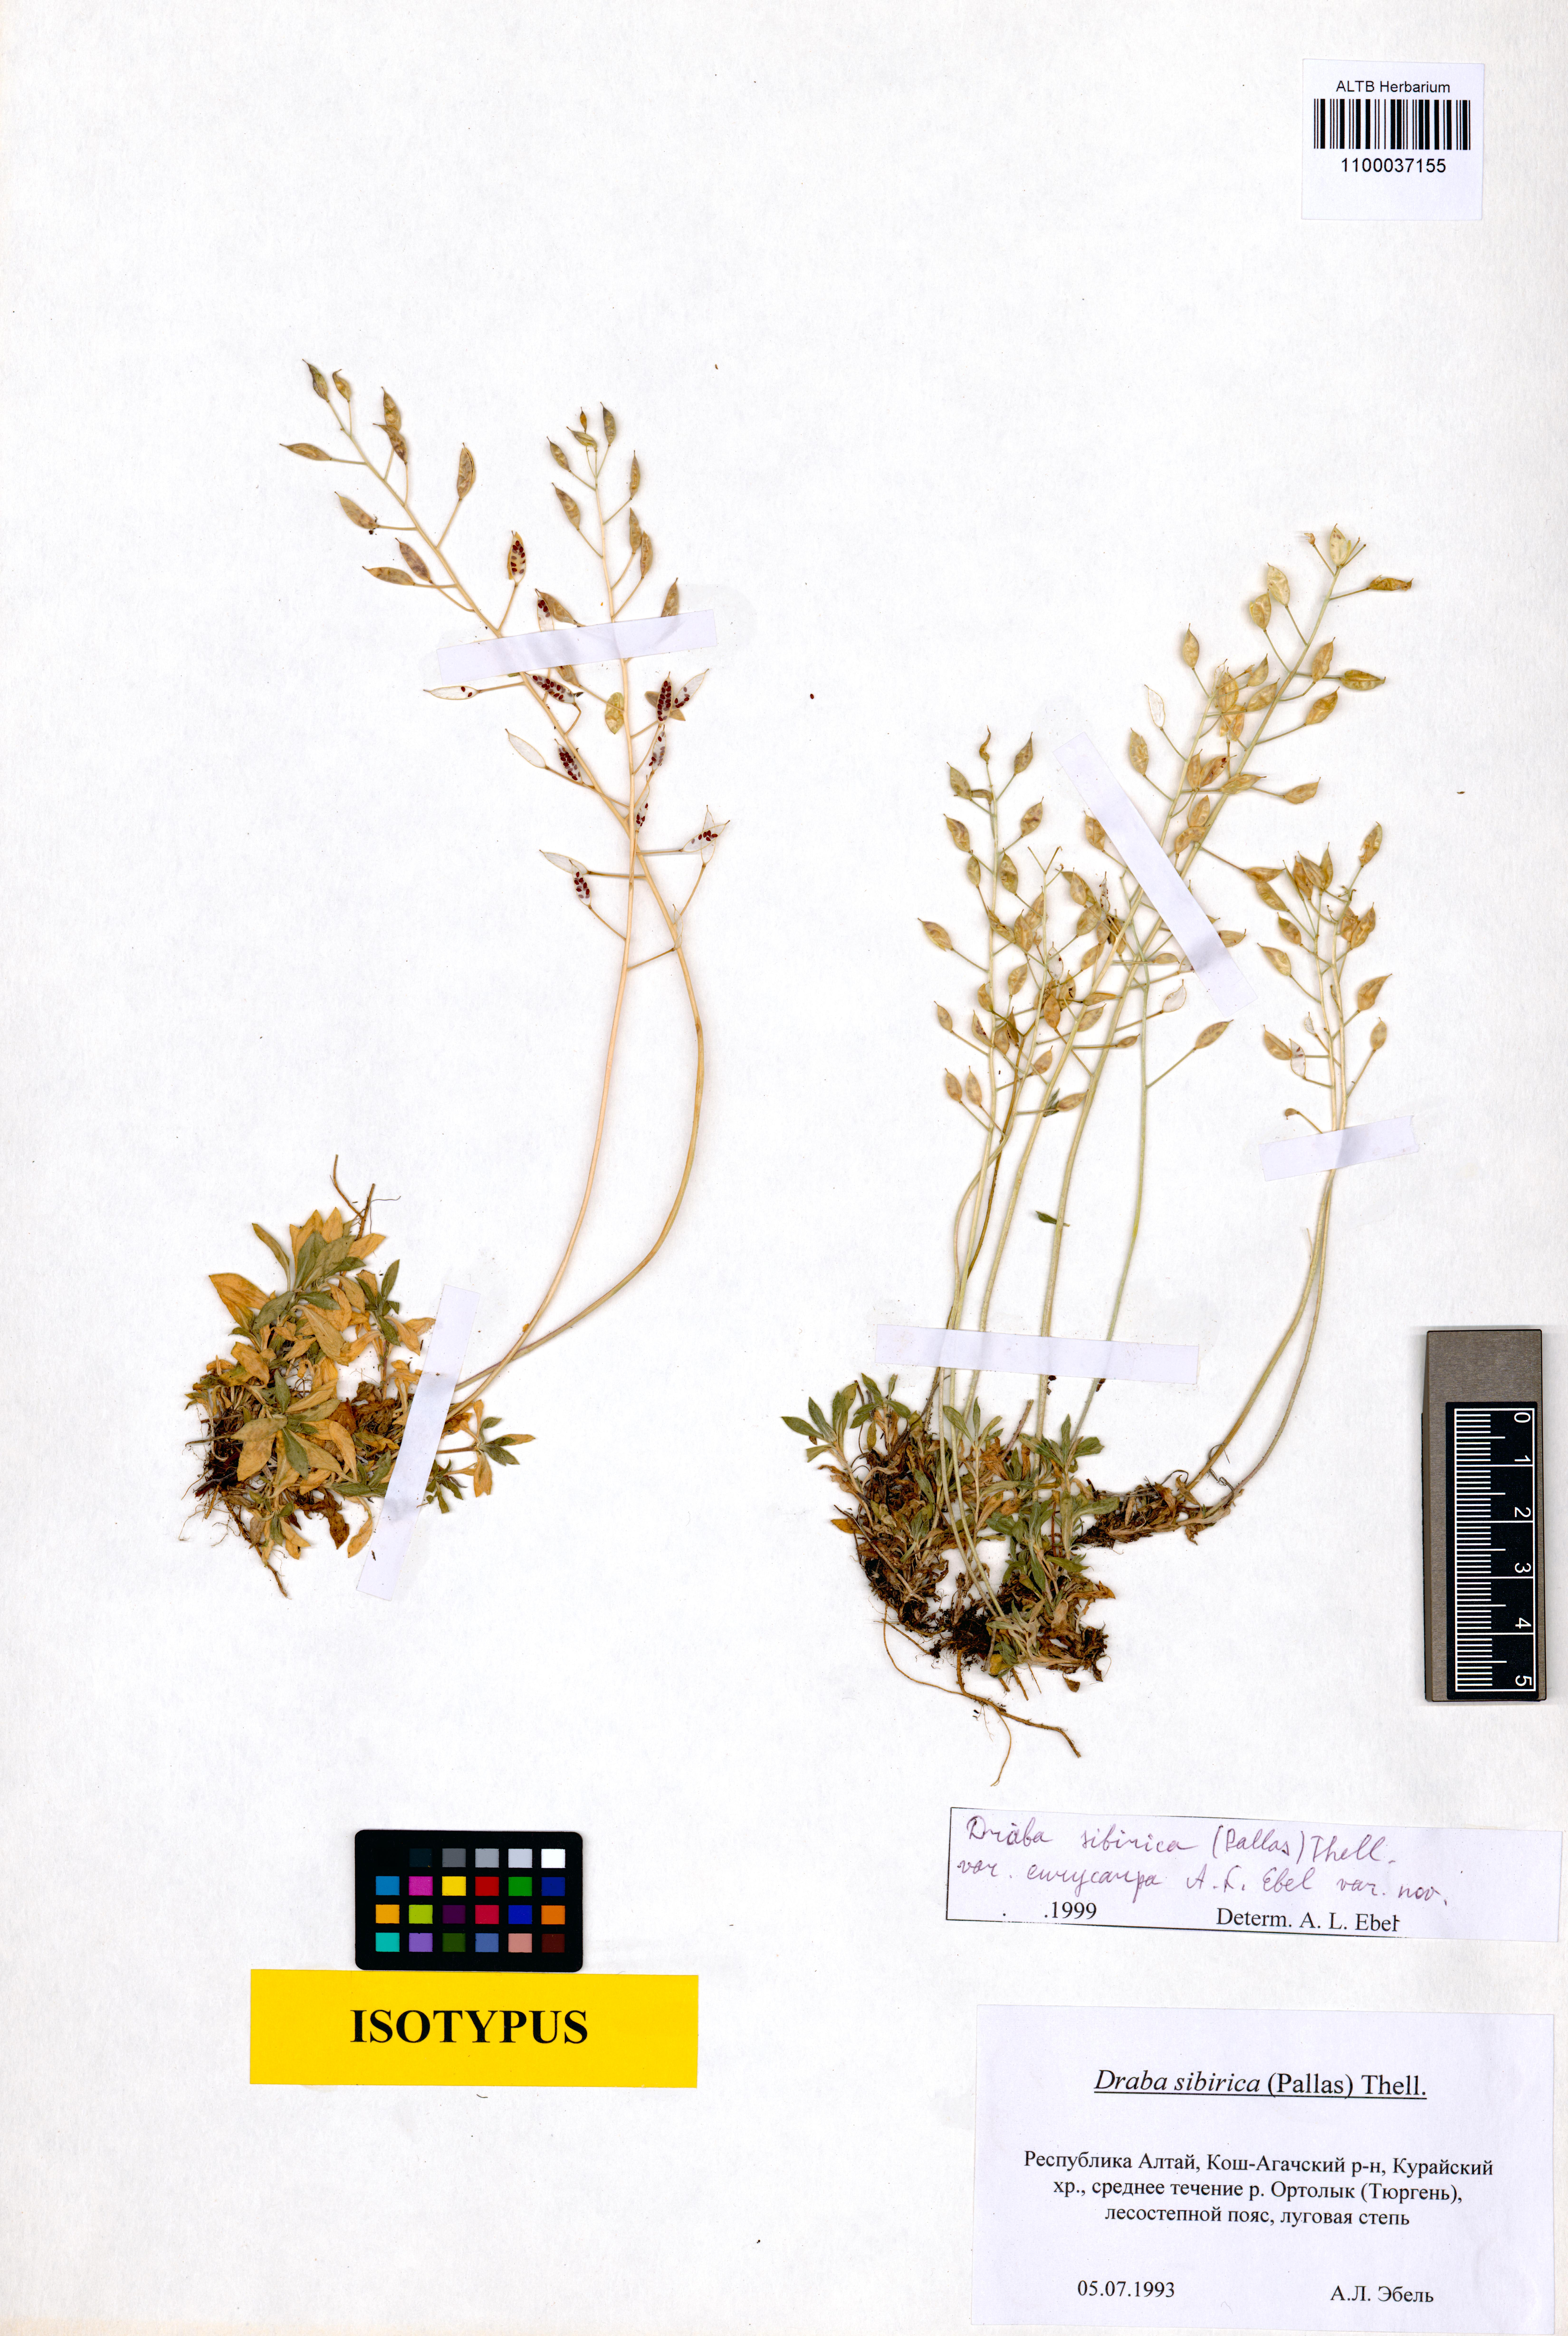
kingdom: Plantae
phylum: Tracheophyta
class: Magnoliopsida
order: Brassicales
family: Brassicaceae
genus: Draba
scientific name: Draba sibirica
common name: Siberian draba
